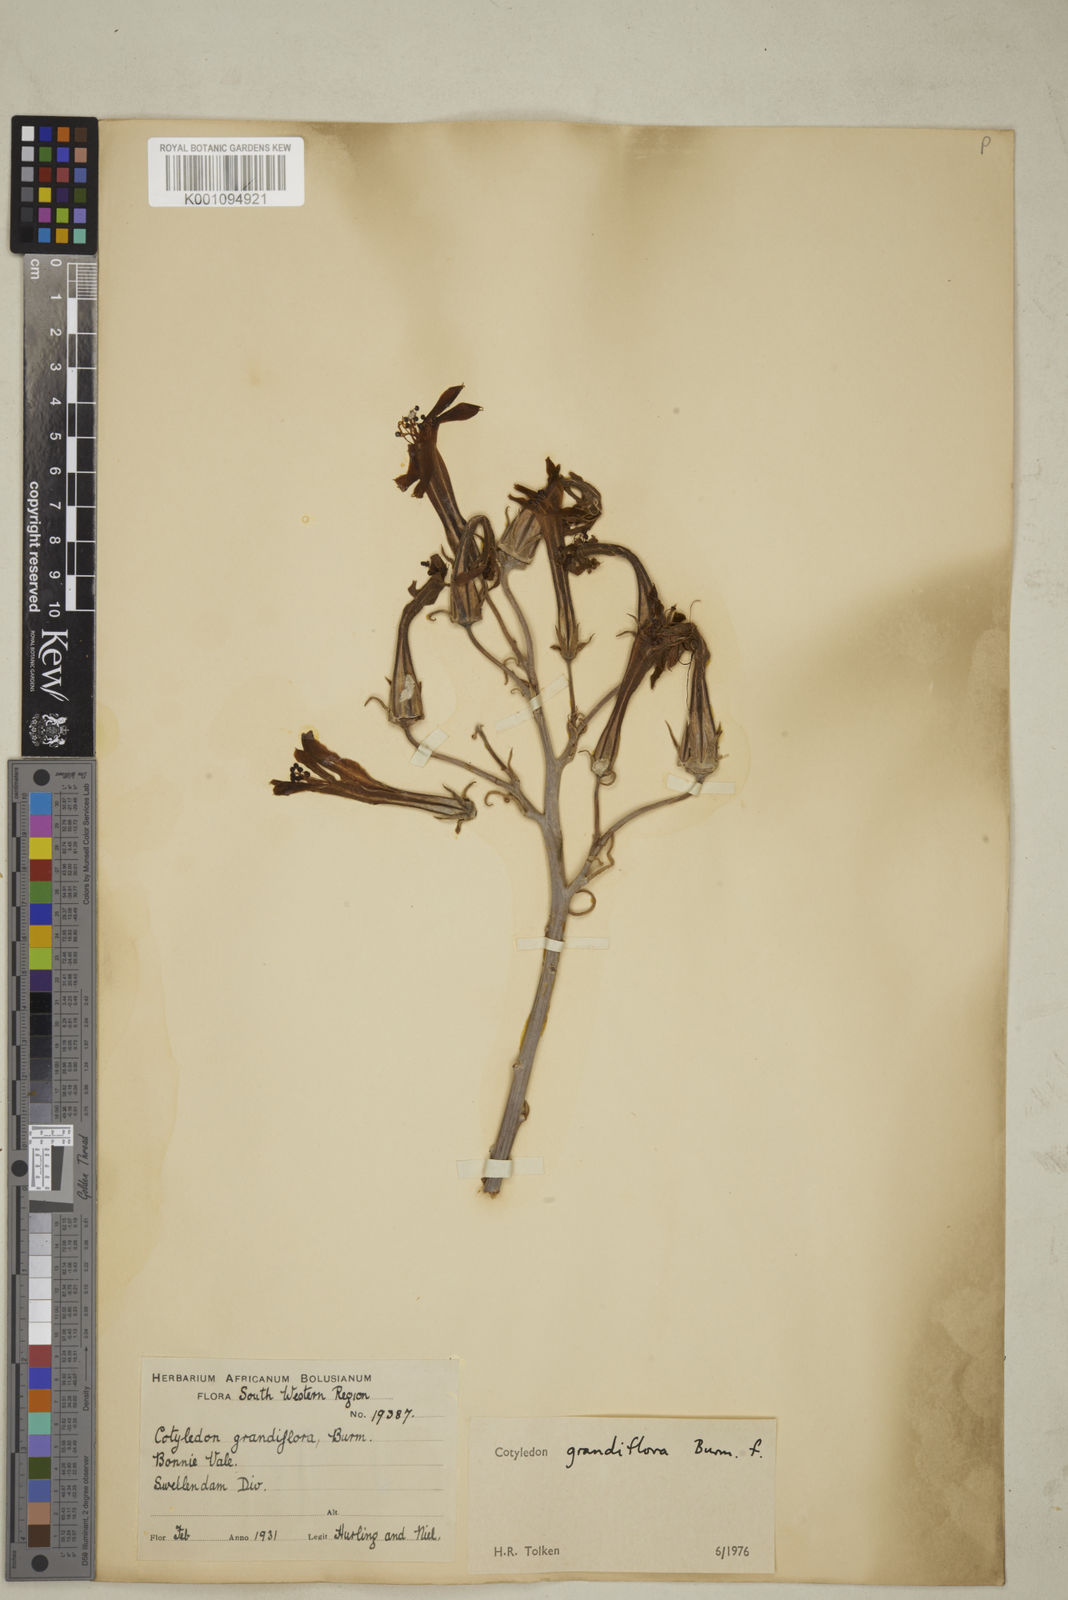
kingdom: Plantae
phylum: Tracheophyta
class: Magnoliopsida
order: Saxifragales
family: Crassulaceae
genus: Tylecodon
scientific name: Tylecodon grandiflorus
